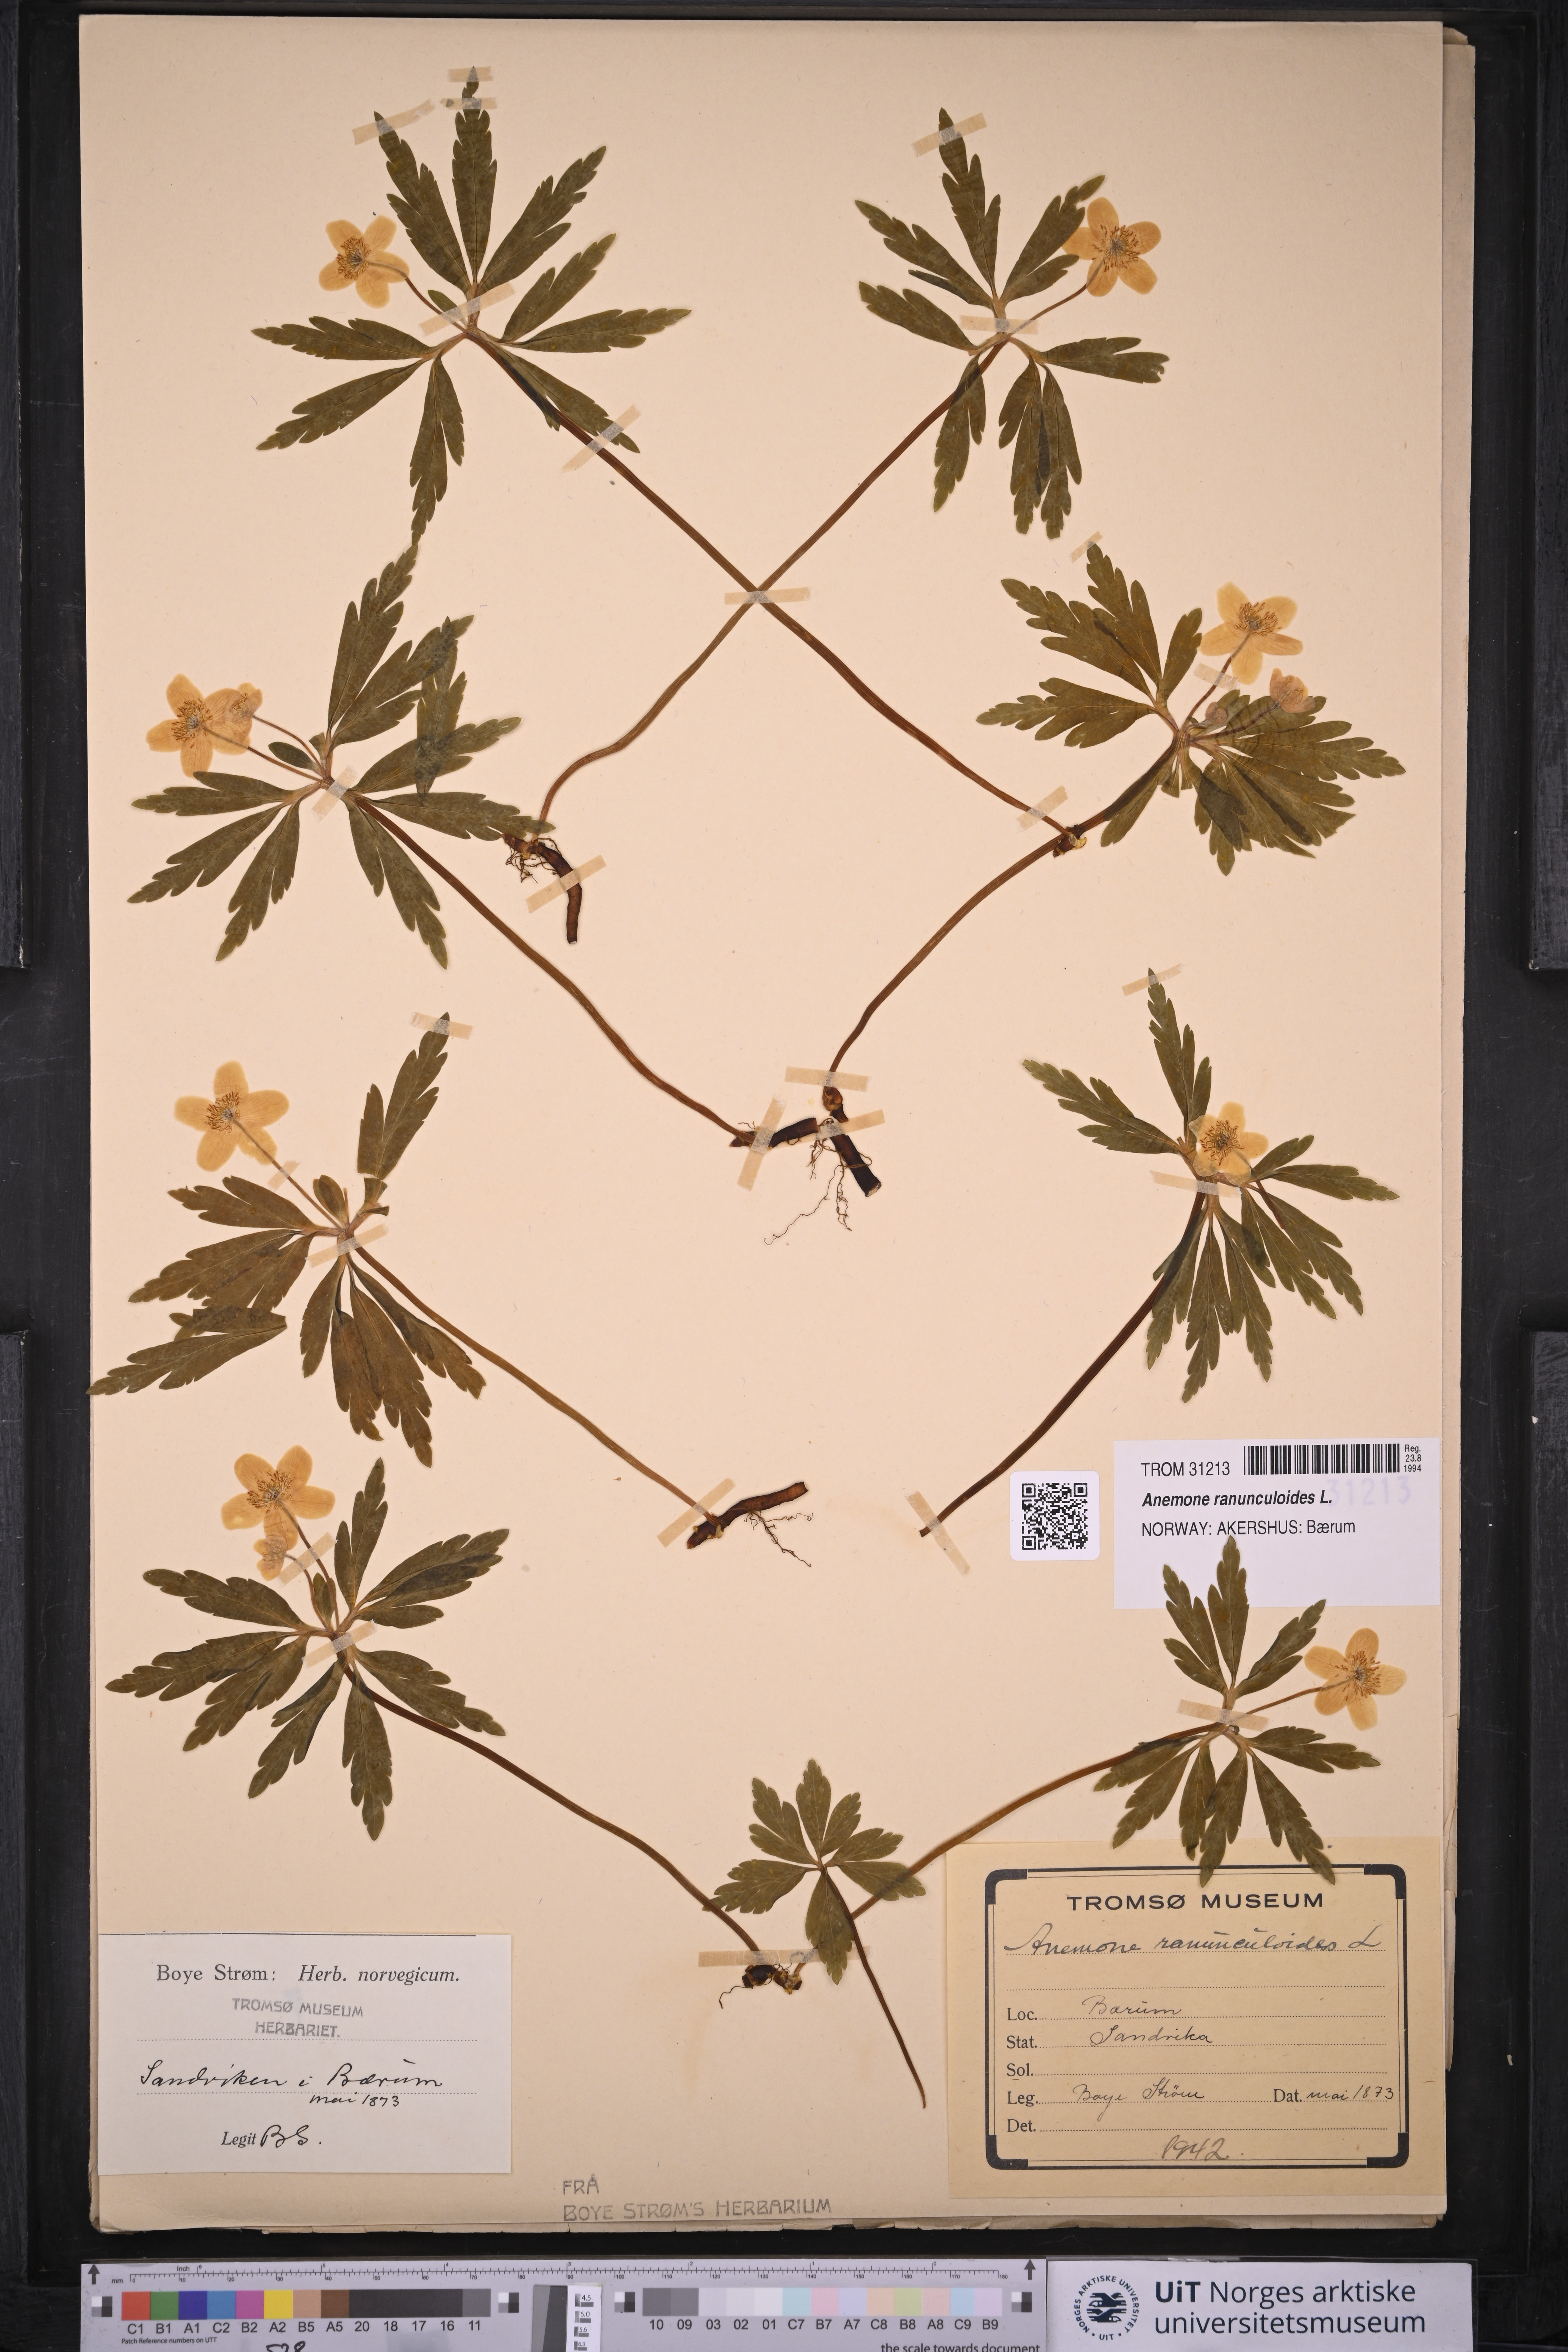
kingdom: Plantae
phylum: Tracheophyta
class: Magnoliopsida
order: Ranunculales
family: Ranunculaceae
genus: Anemone
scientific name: Anemone ranunculoides
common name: Yellow anemone
